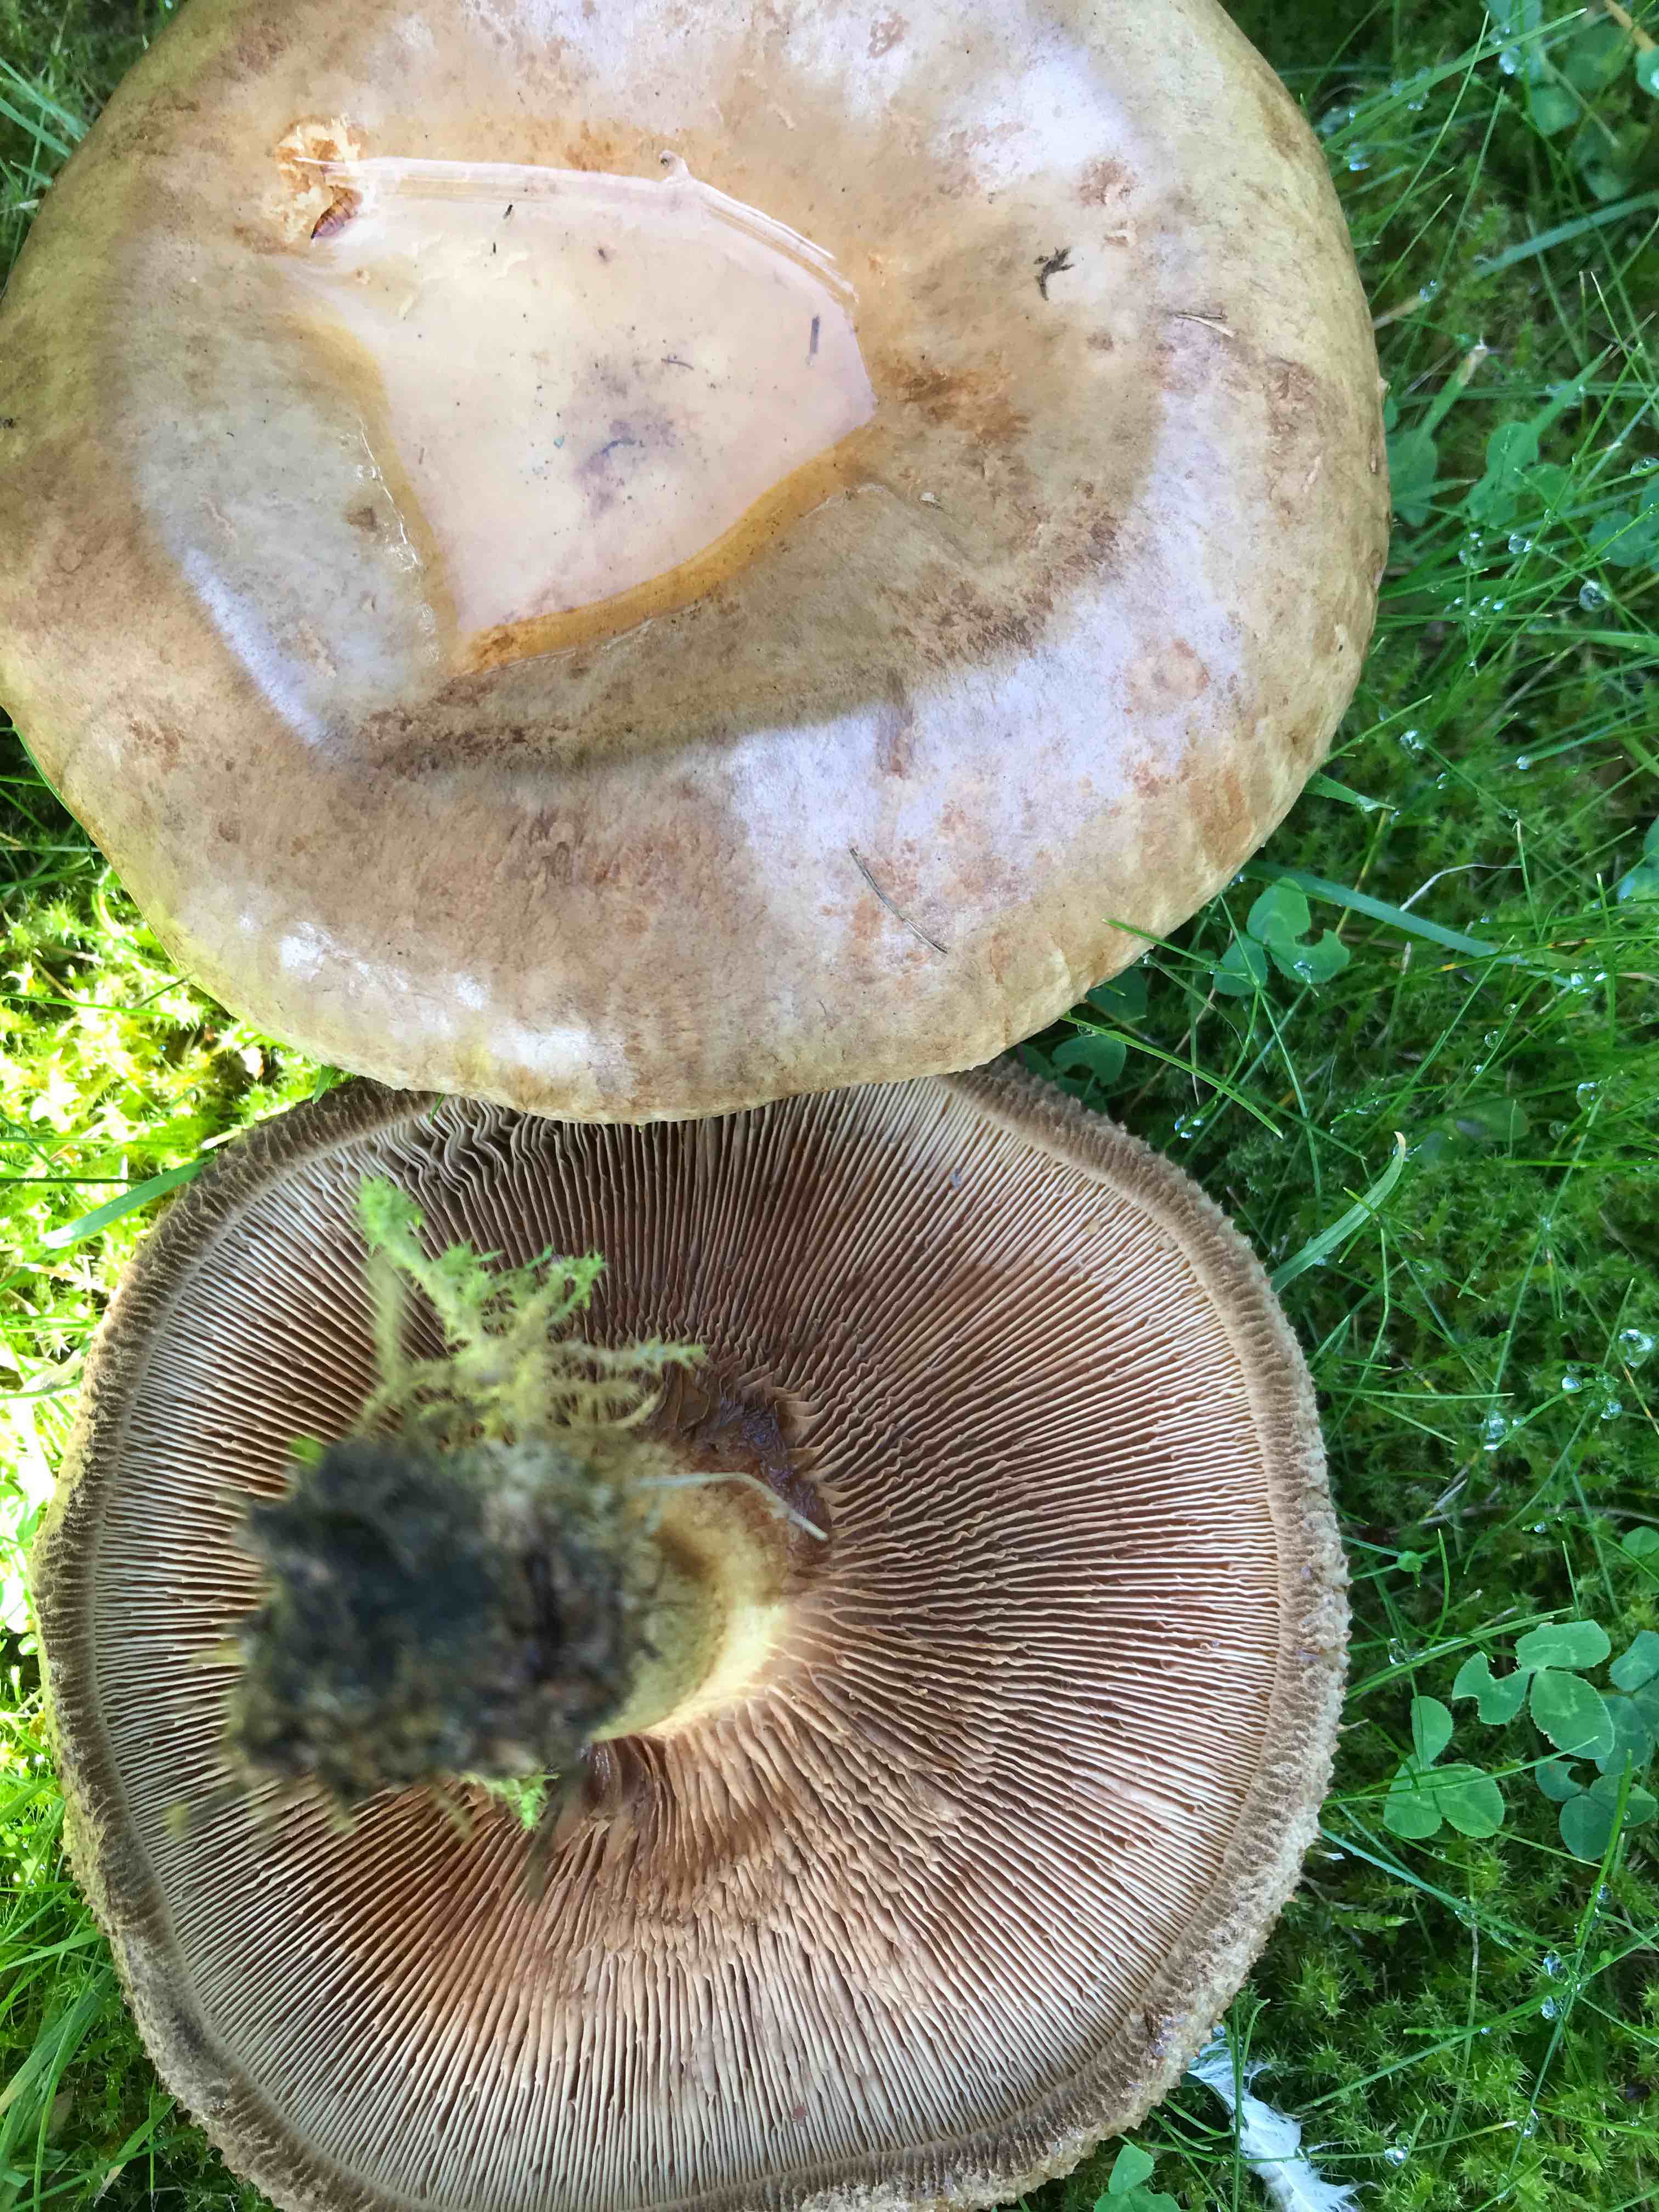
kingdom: Fungi
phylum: Basidiomycota
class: Agaricomycetes
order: Boletales
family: Paxillaceae
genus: Paxillus
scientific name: Paxillus
